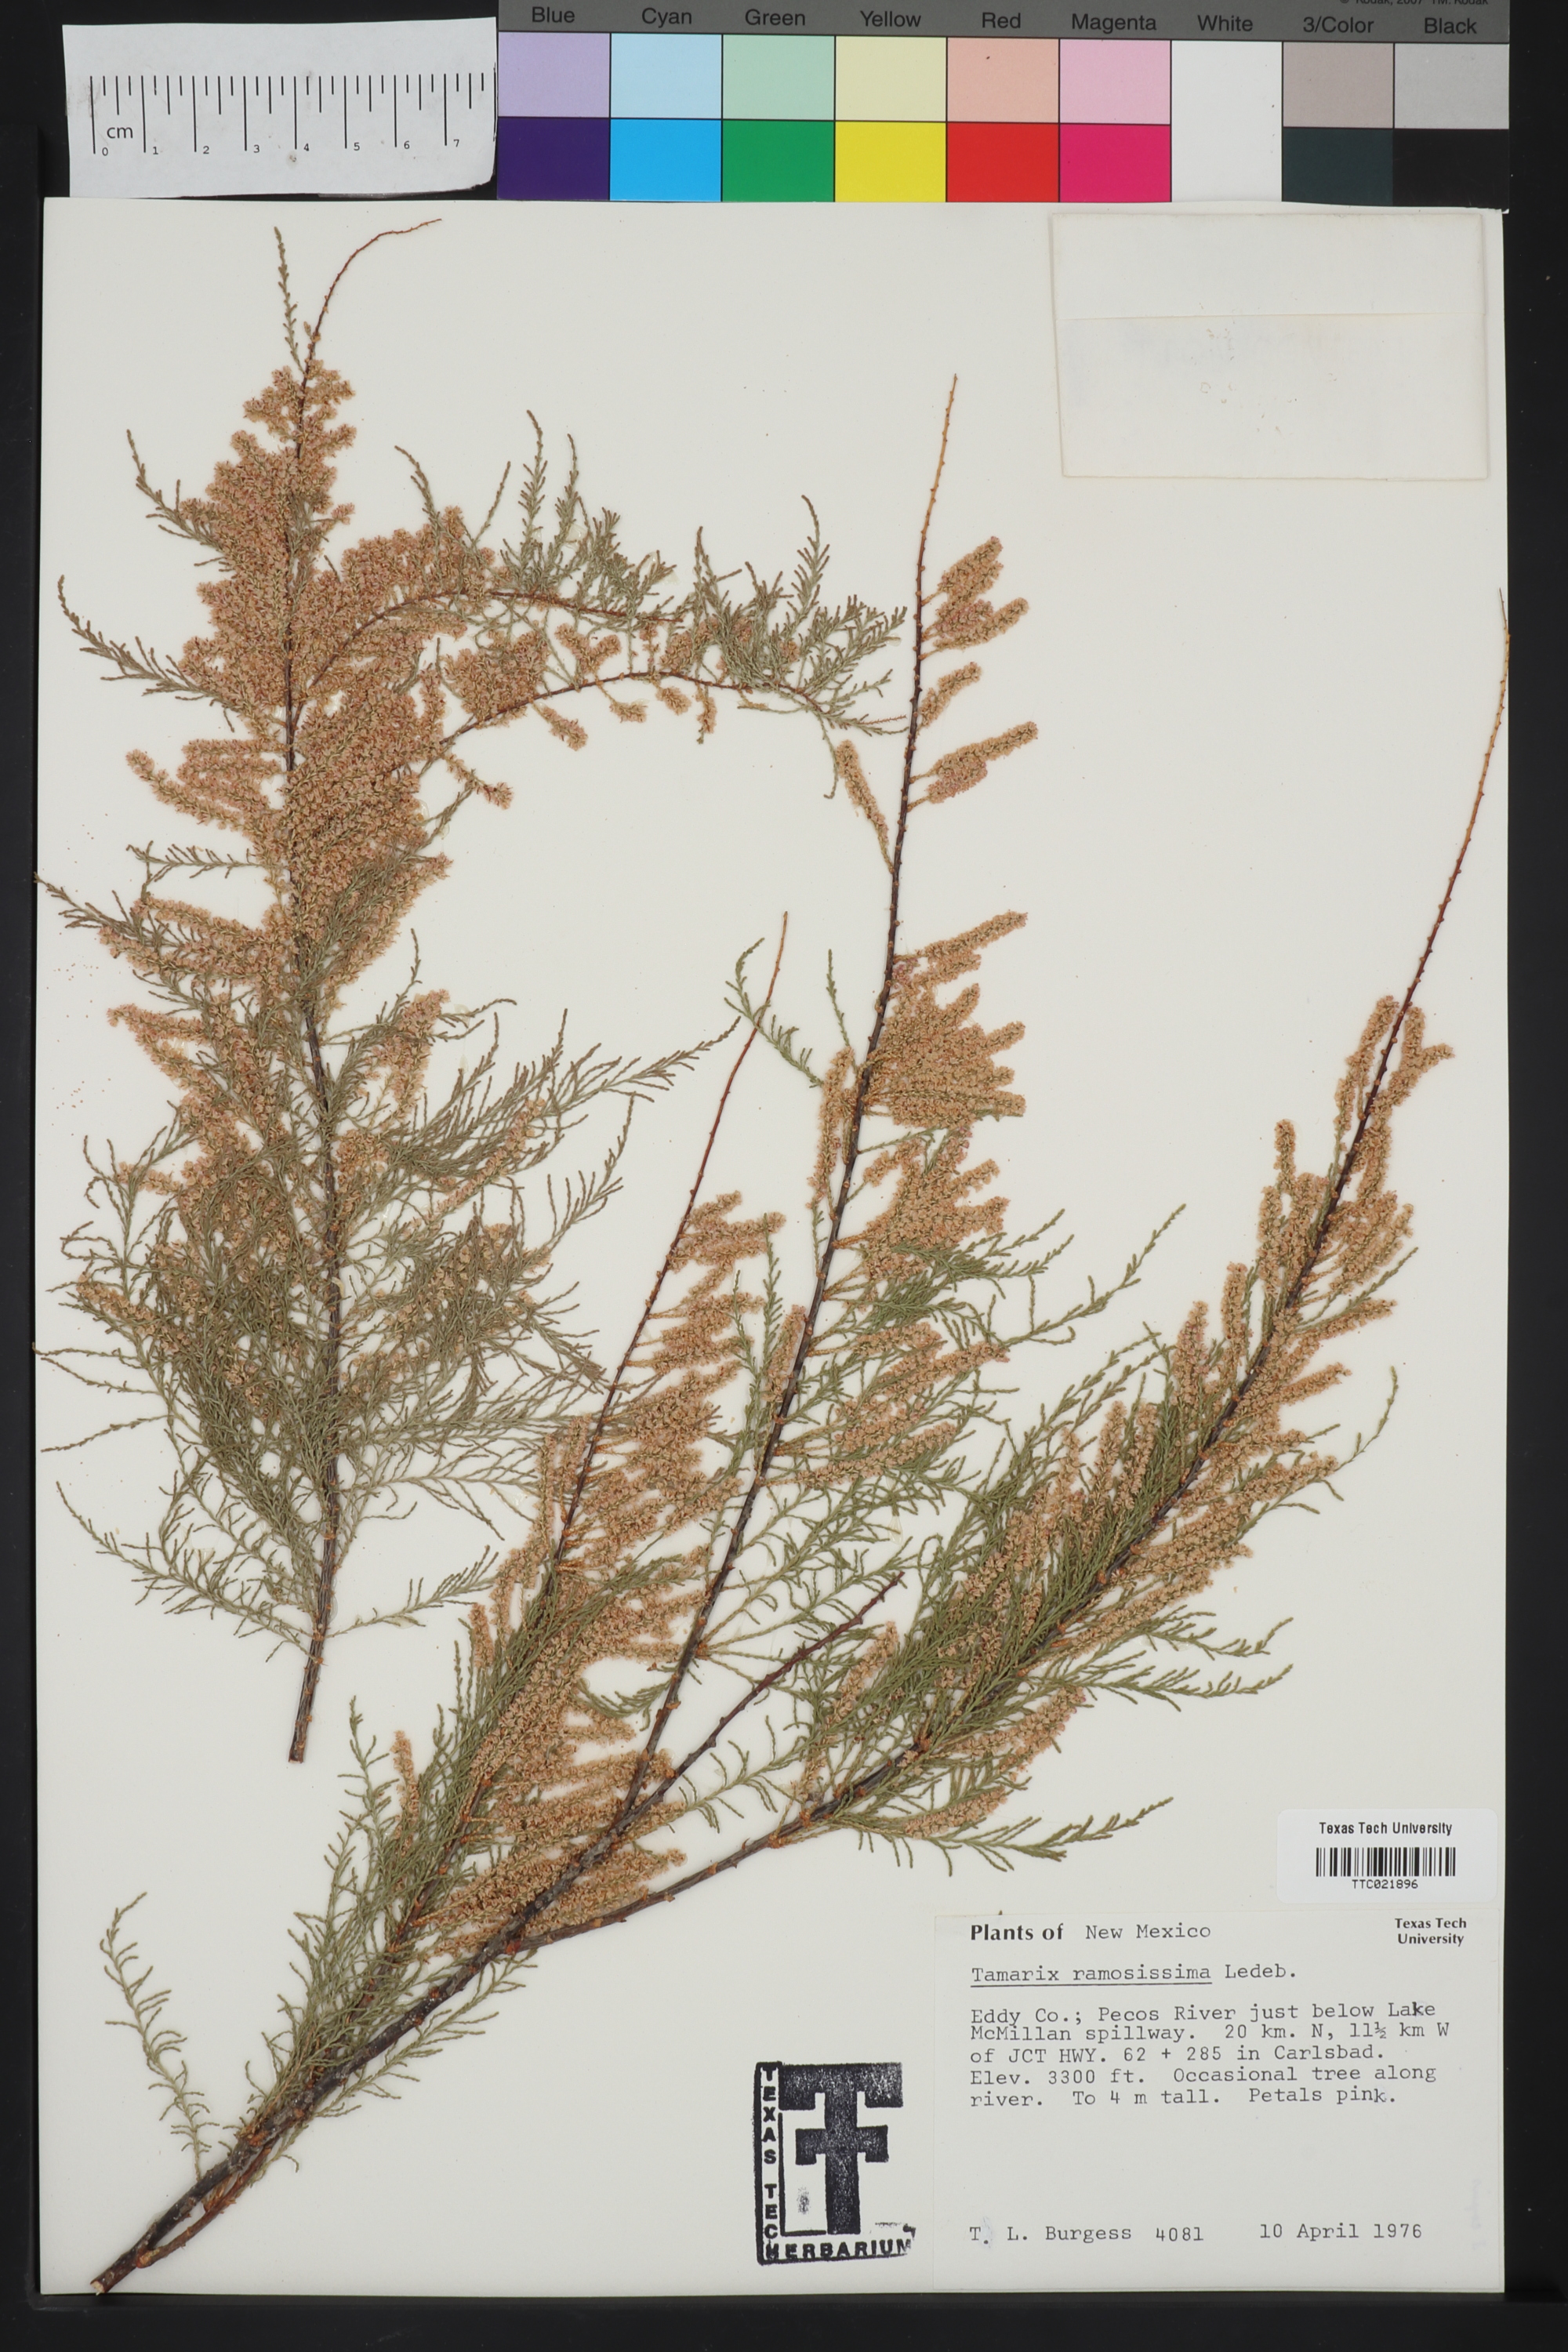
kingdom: Plantae
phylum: Tracheophyta
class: Magnoliopsida
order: Caryophyllales
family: Tamaricaceae
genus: Tamarix
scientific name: Tamarix ramosissima
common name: Pink tamarisk
